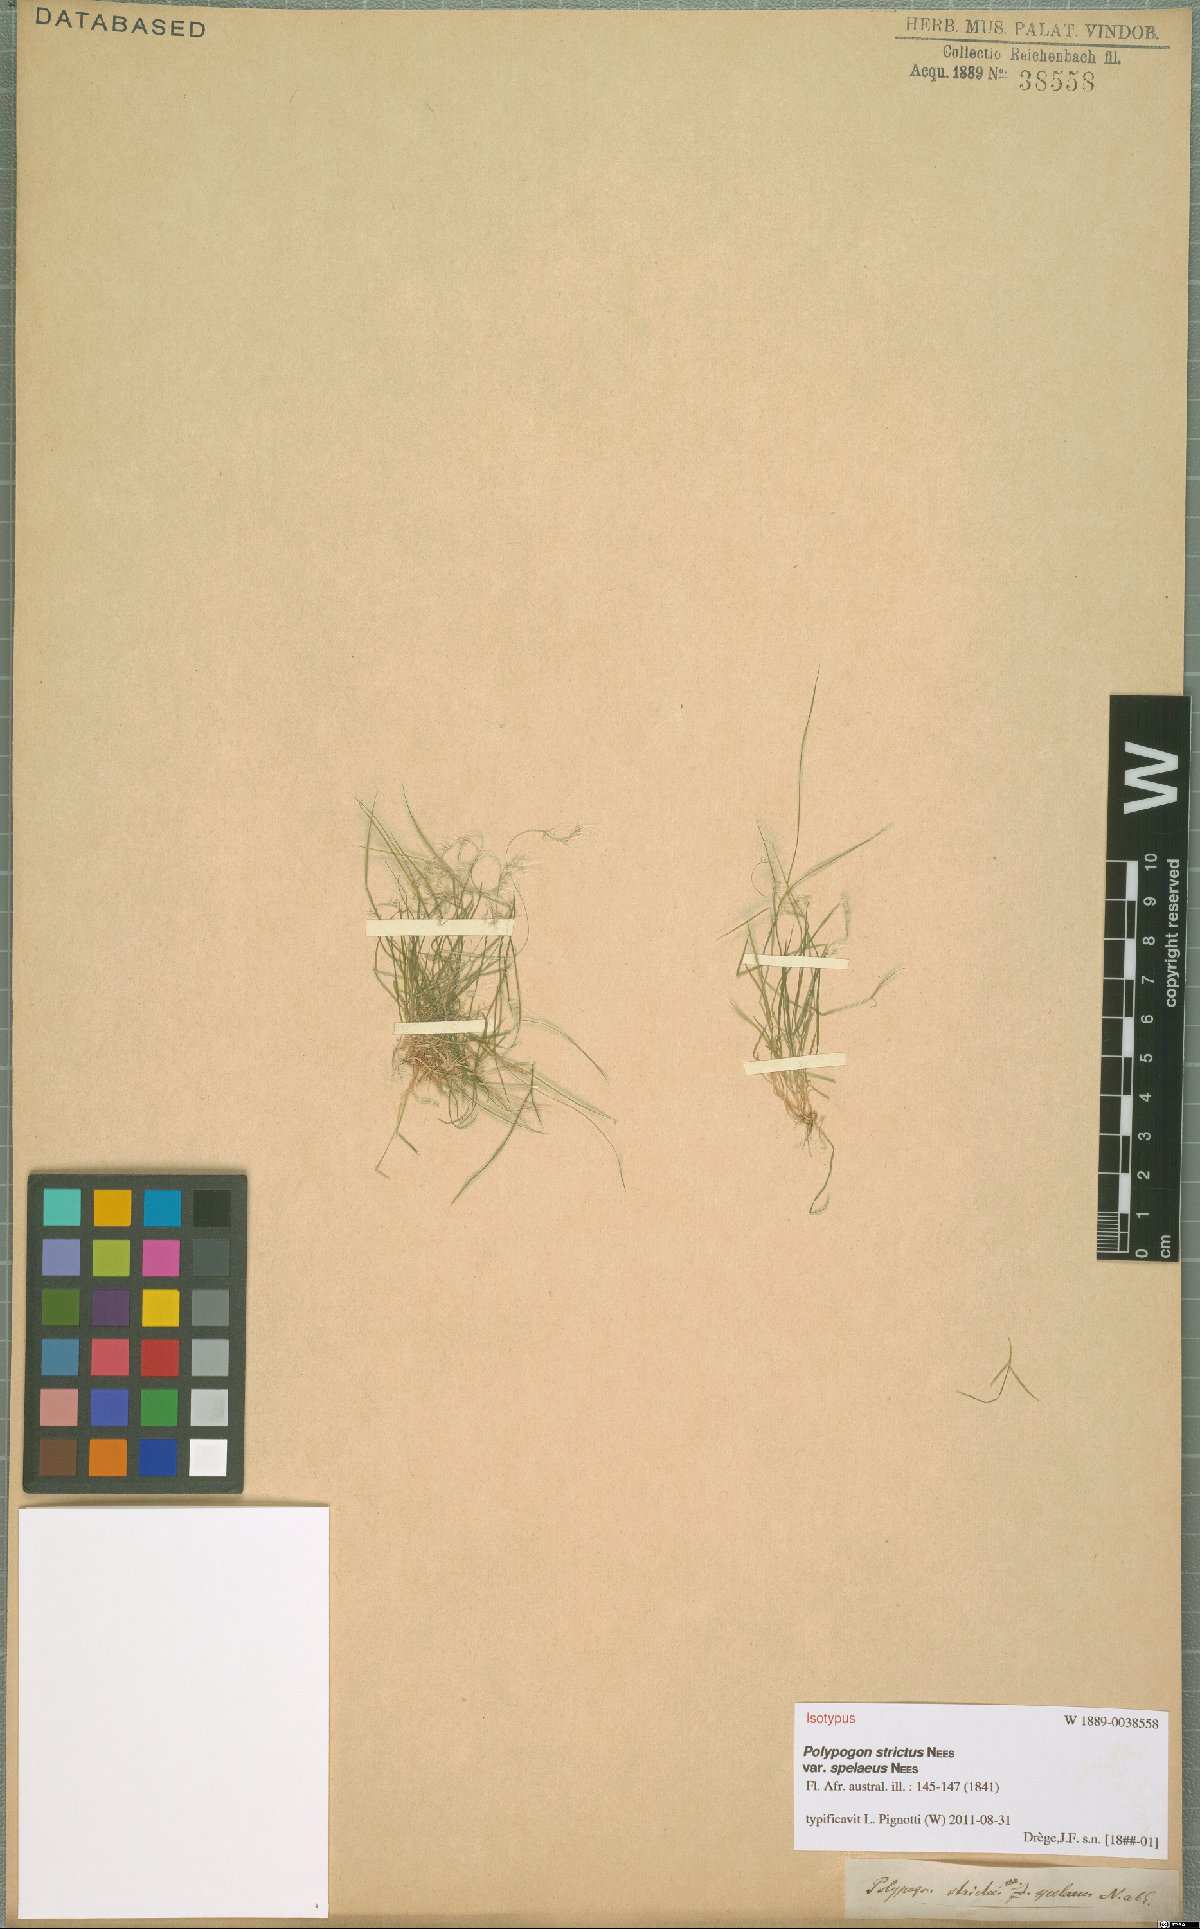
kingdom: Plantae
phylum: Tracheophyta
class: Liliopsida
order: Poales
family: Poaceae
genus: Polypogon
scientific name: Polypogon tenuis
